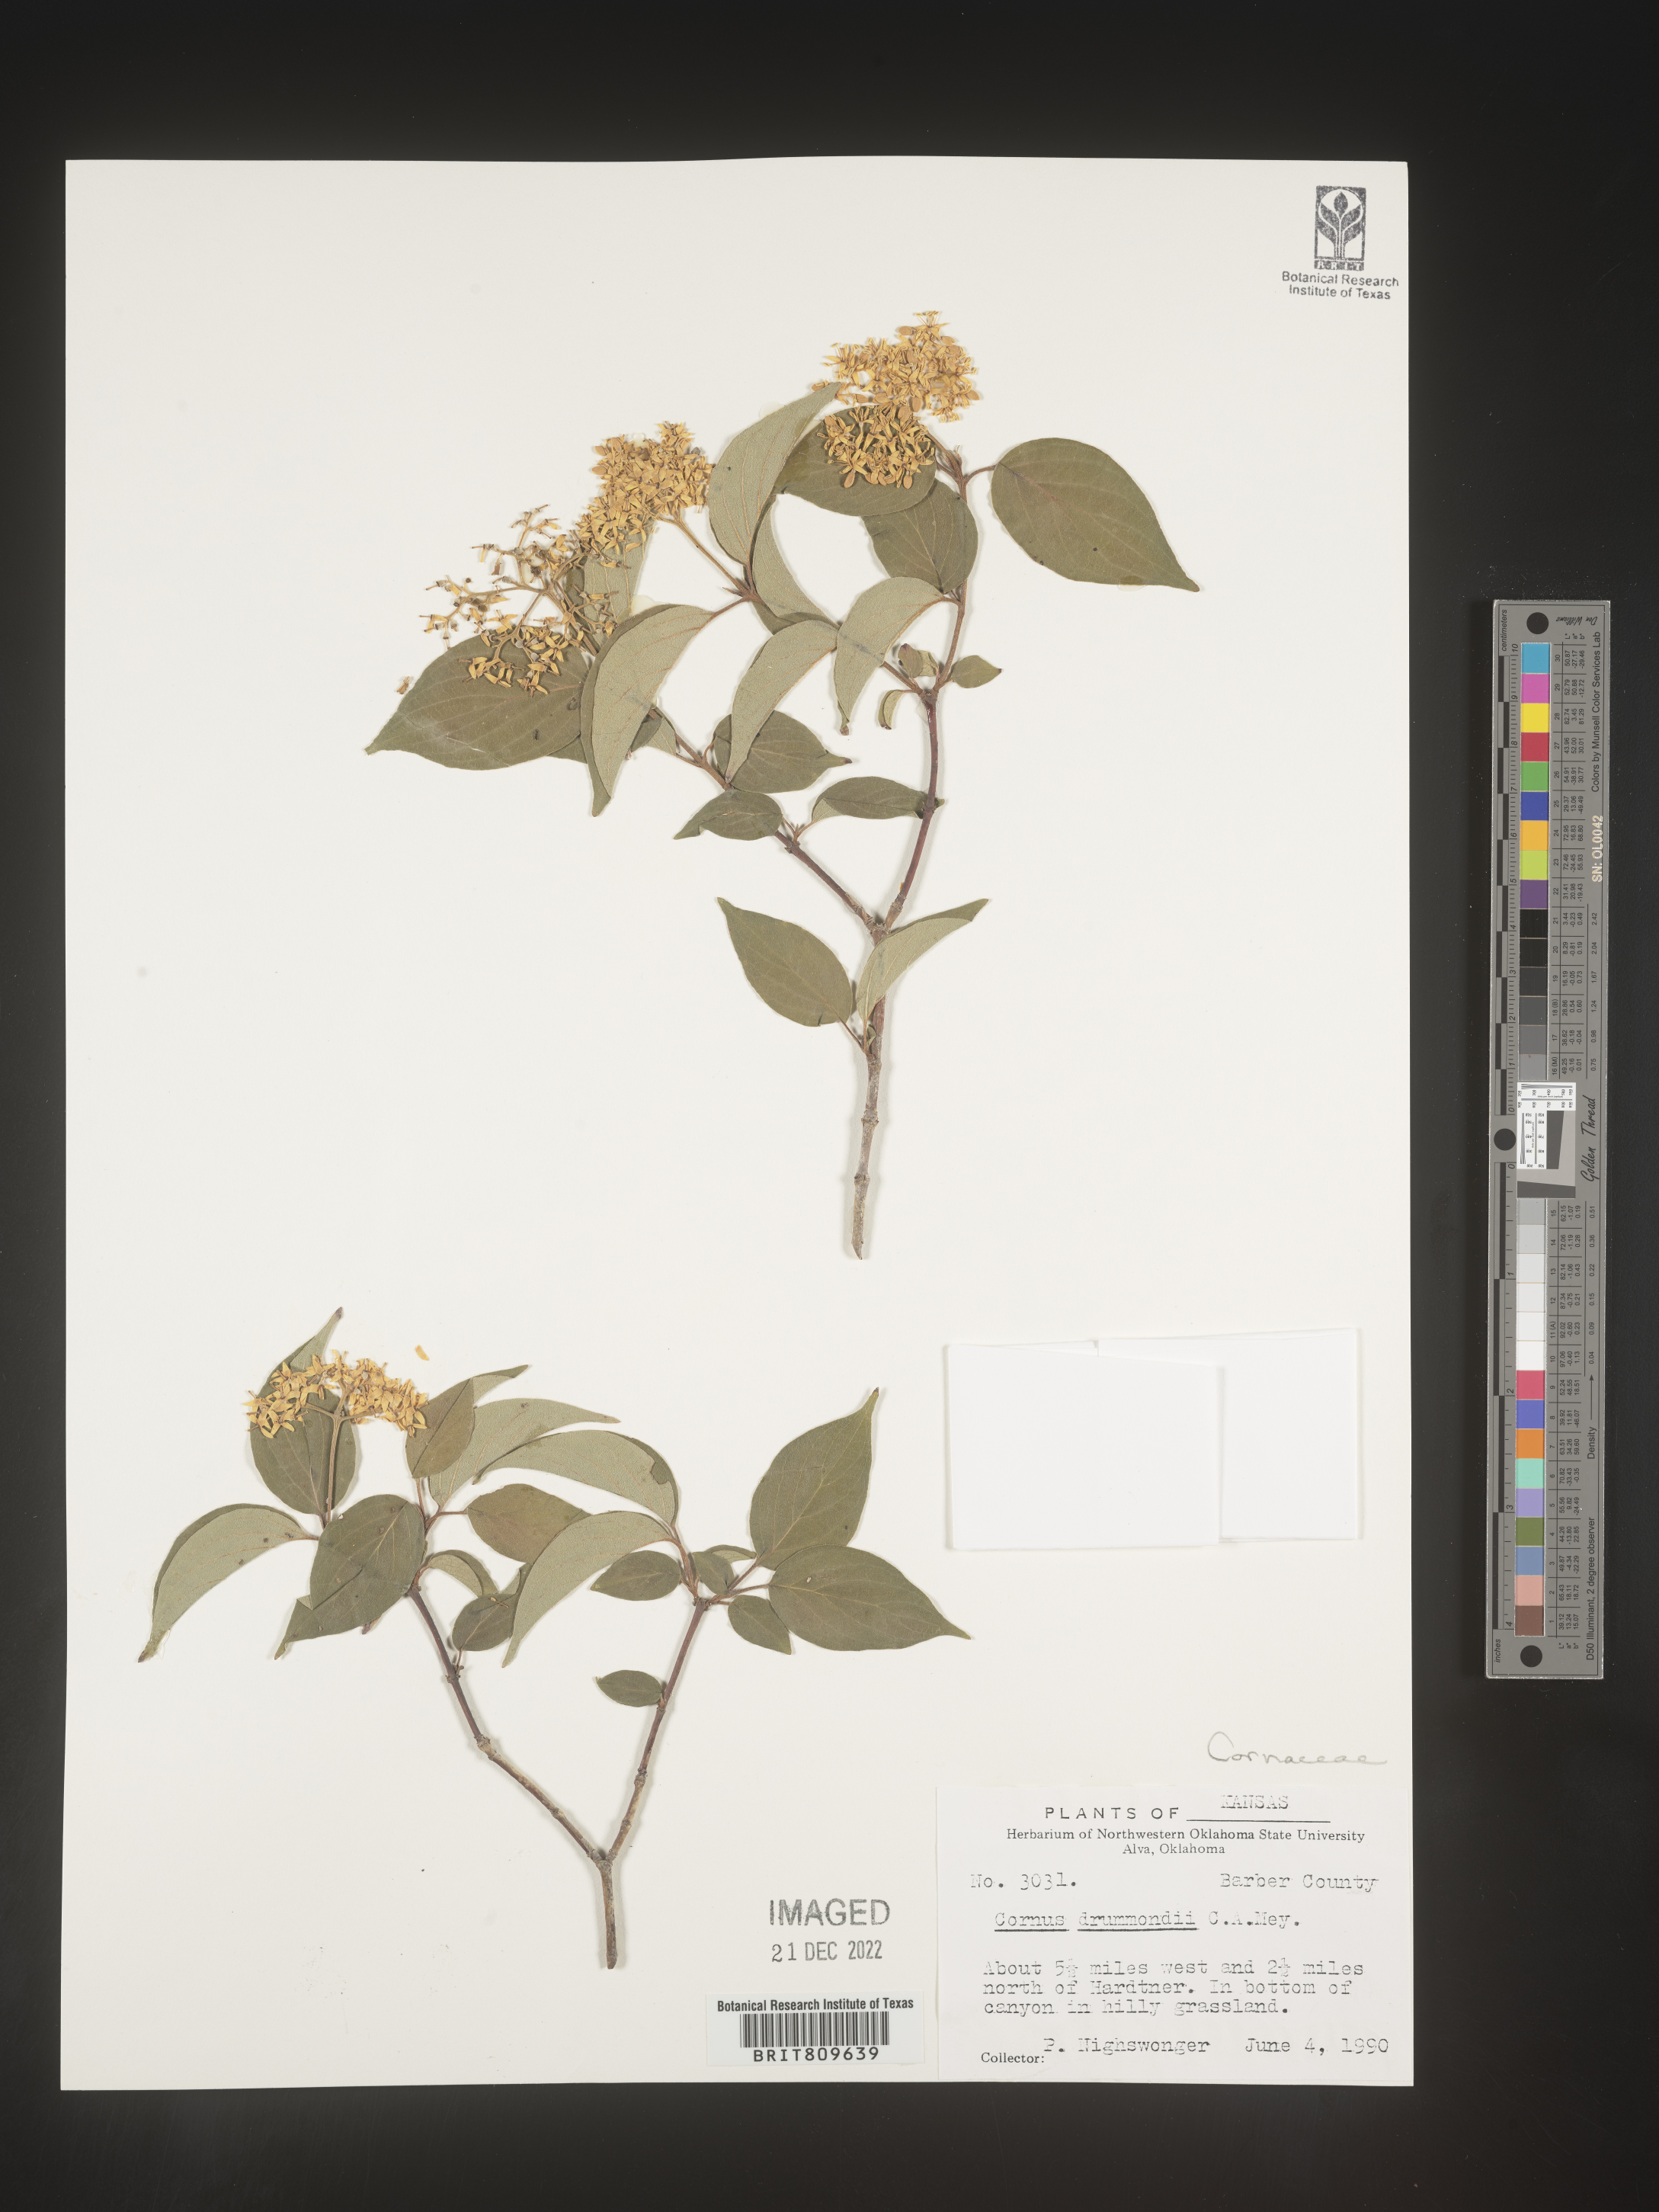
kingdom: Plantae
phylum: Tracheophyta
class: Magnoliopsida
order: Cornales
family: Cornaceae
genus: Cornus
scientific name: Cornus drummondii
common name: Rough-leaf dogwood
